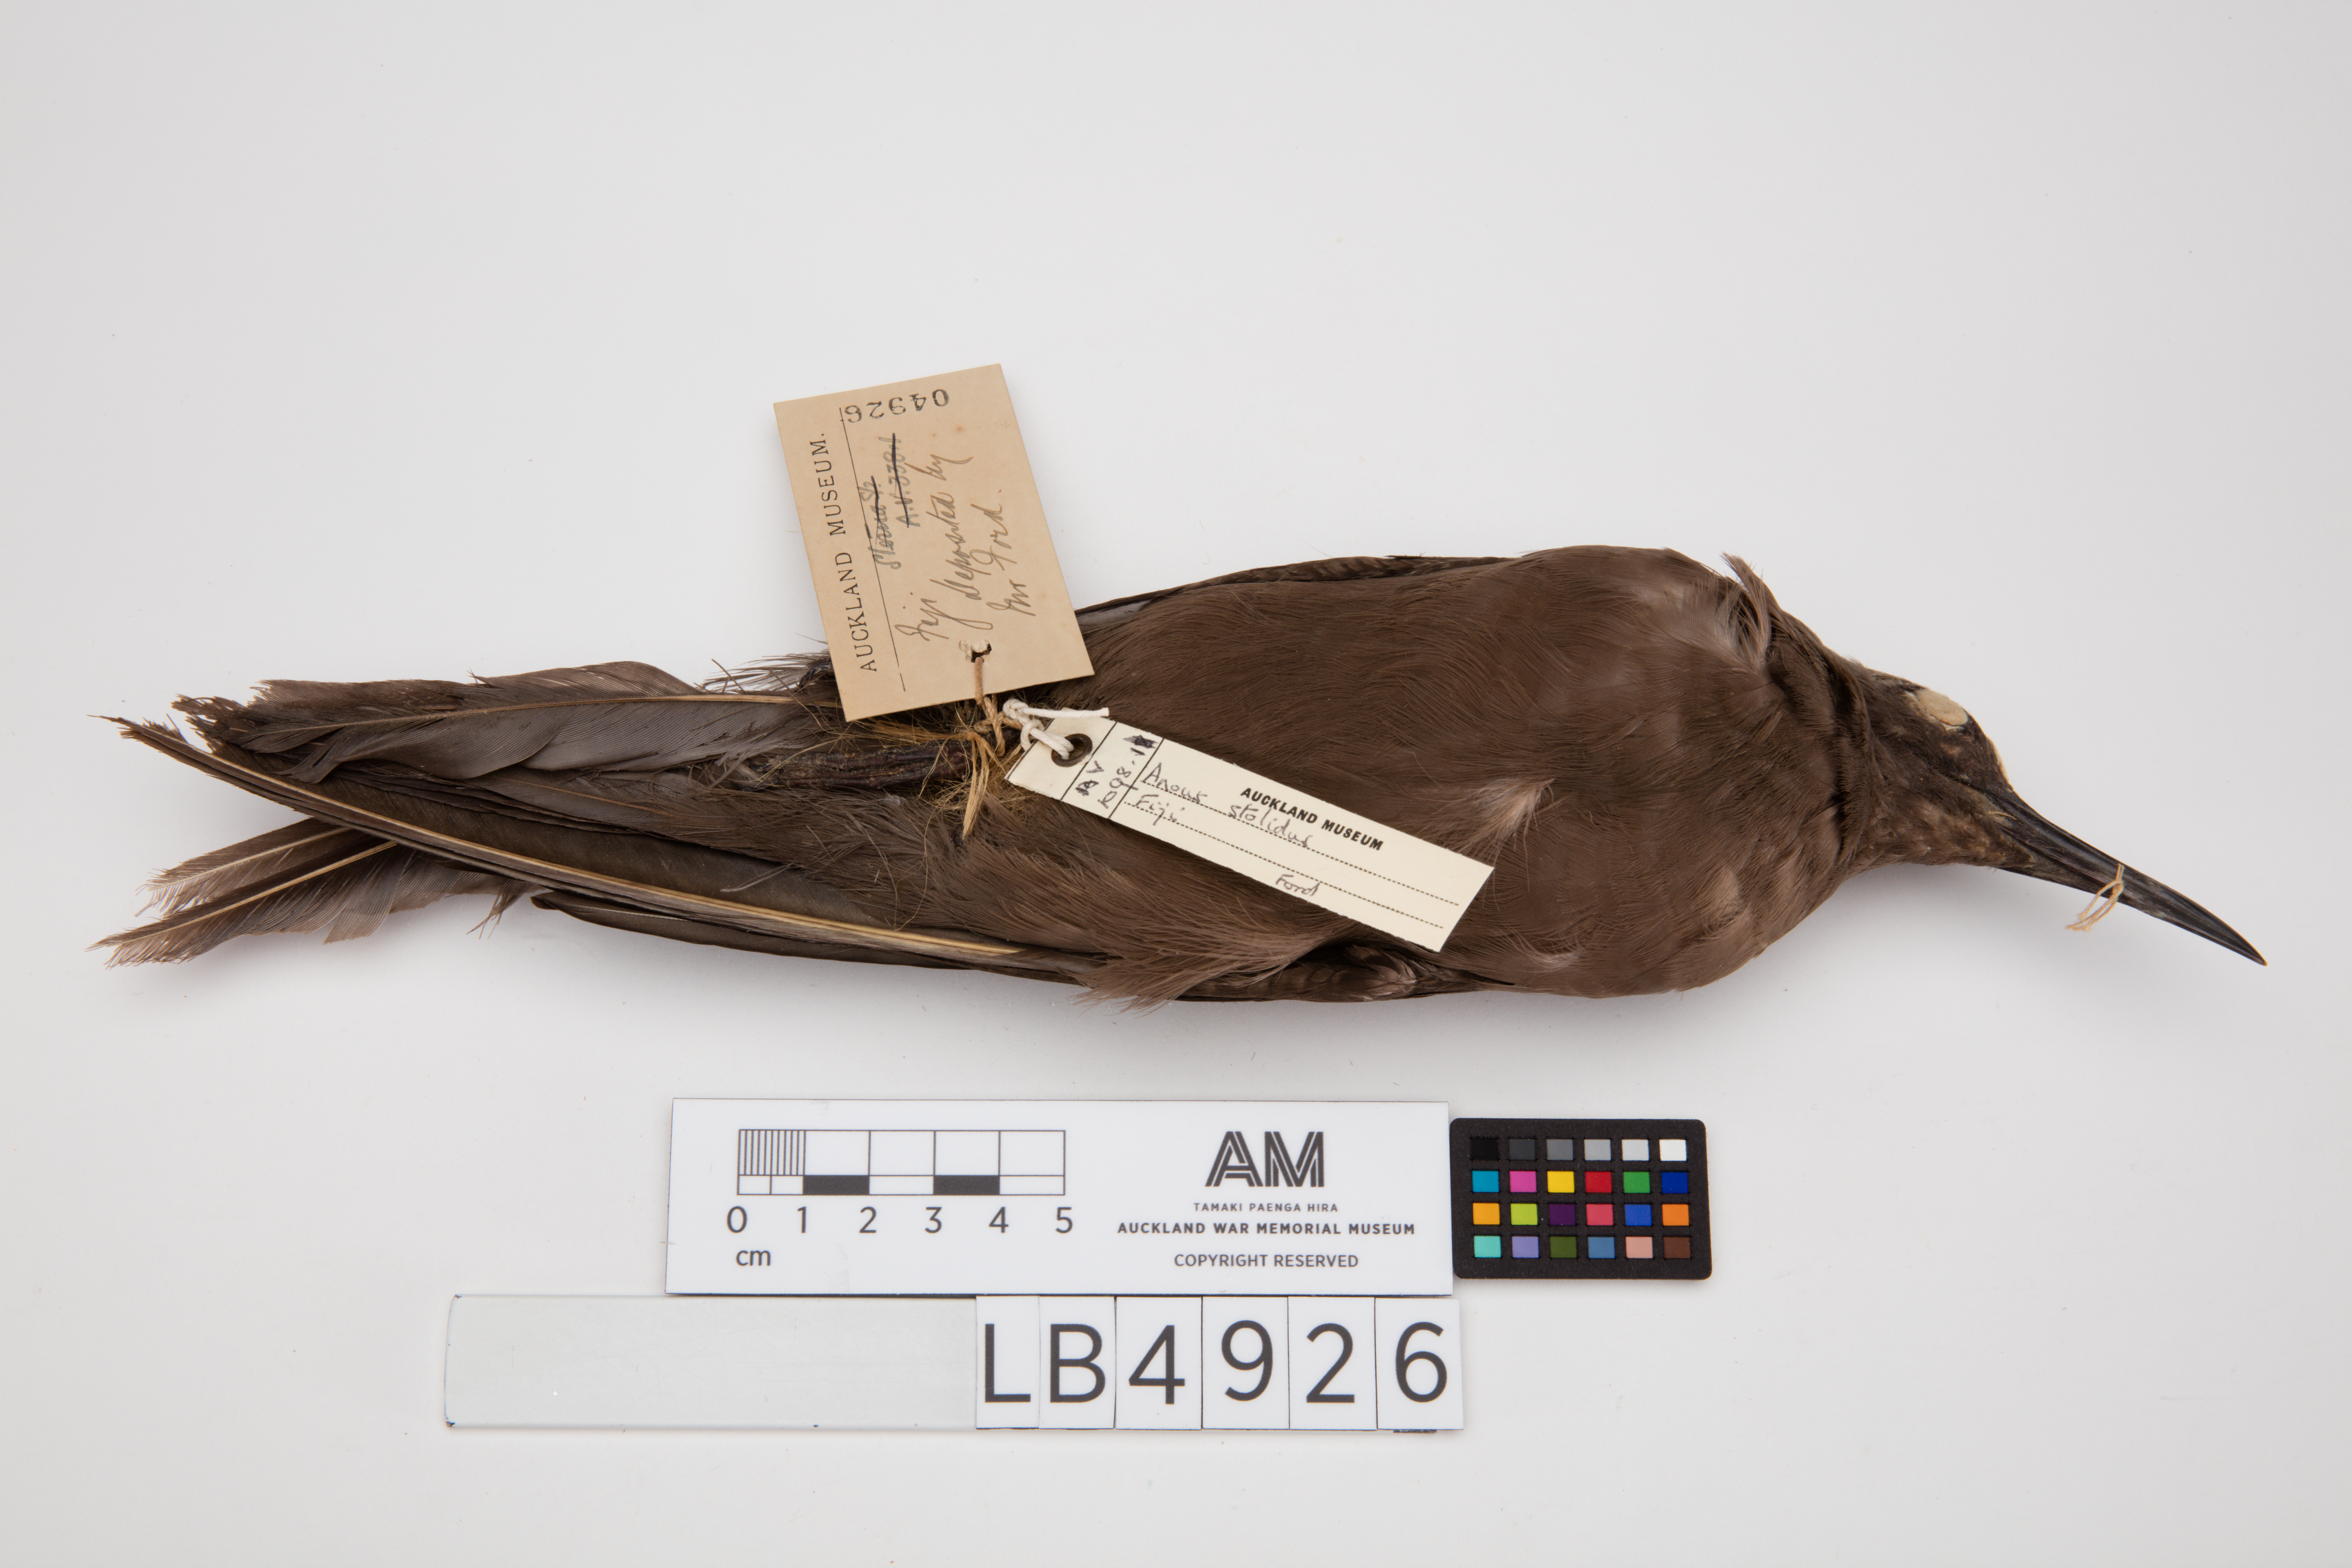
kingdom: Animalia
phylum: Chordata
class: Aves
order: Charadriiformes
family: Laridae
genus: Anous
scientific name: Anous stolidus
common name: Brown noddy
